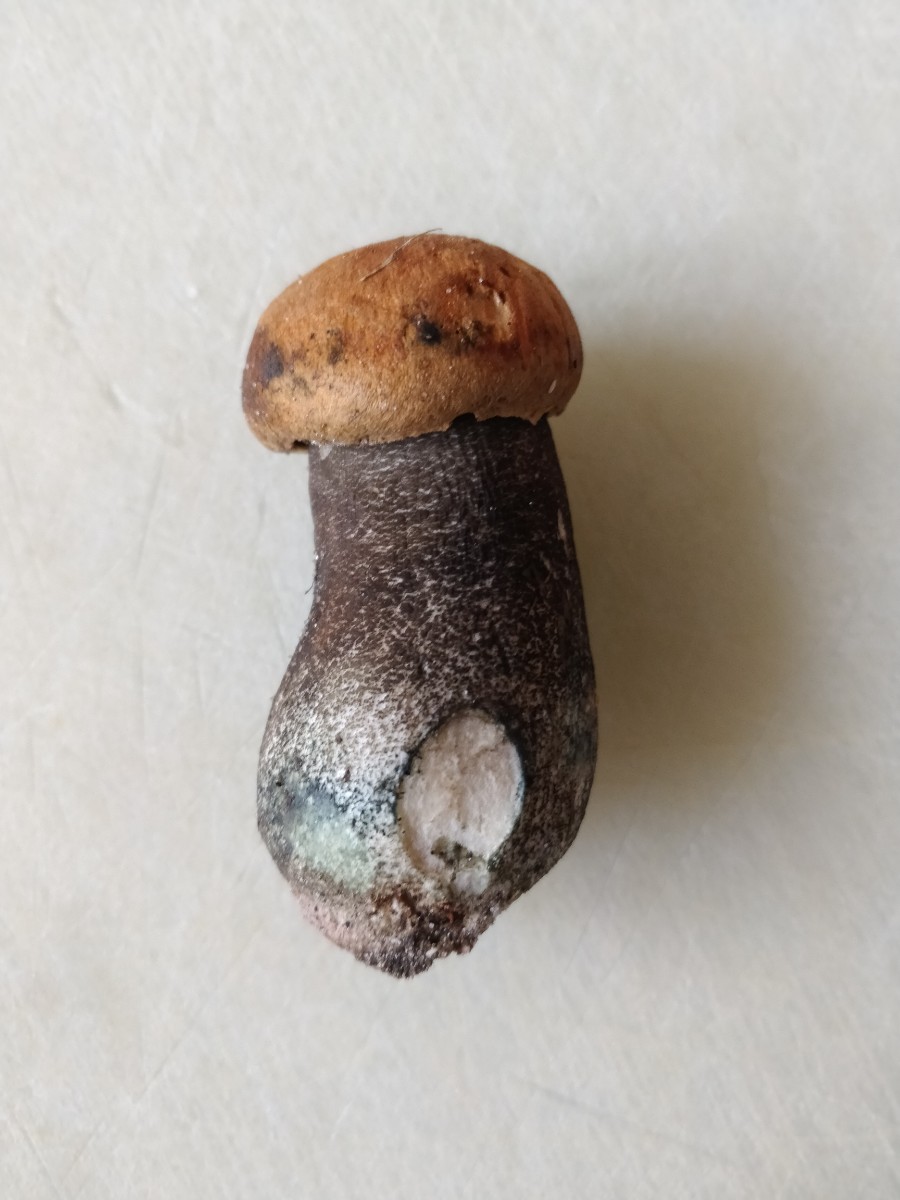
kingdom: Fungi
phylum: Basidiomycota
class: Agaricomycetes
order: Boletales
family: Boletaceae
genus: Leccinum
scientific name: Leccinum versipelle
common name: orange skælrørhat
